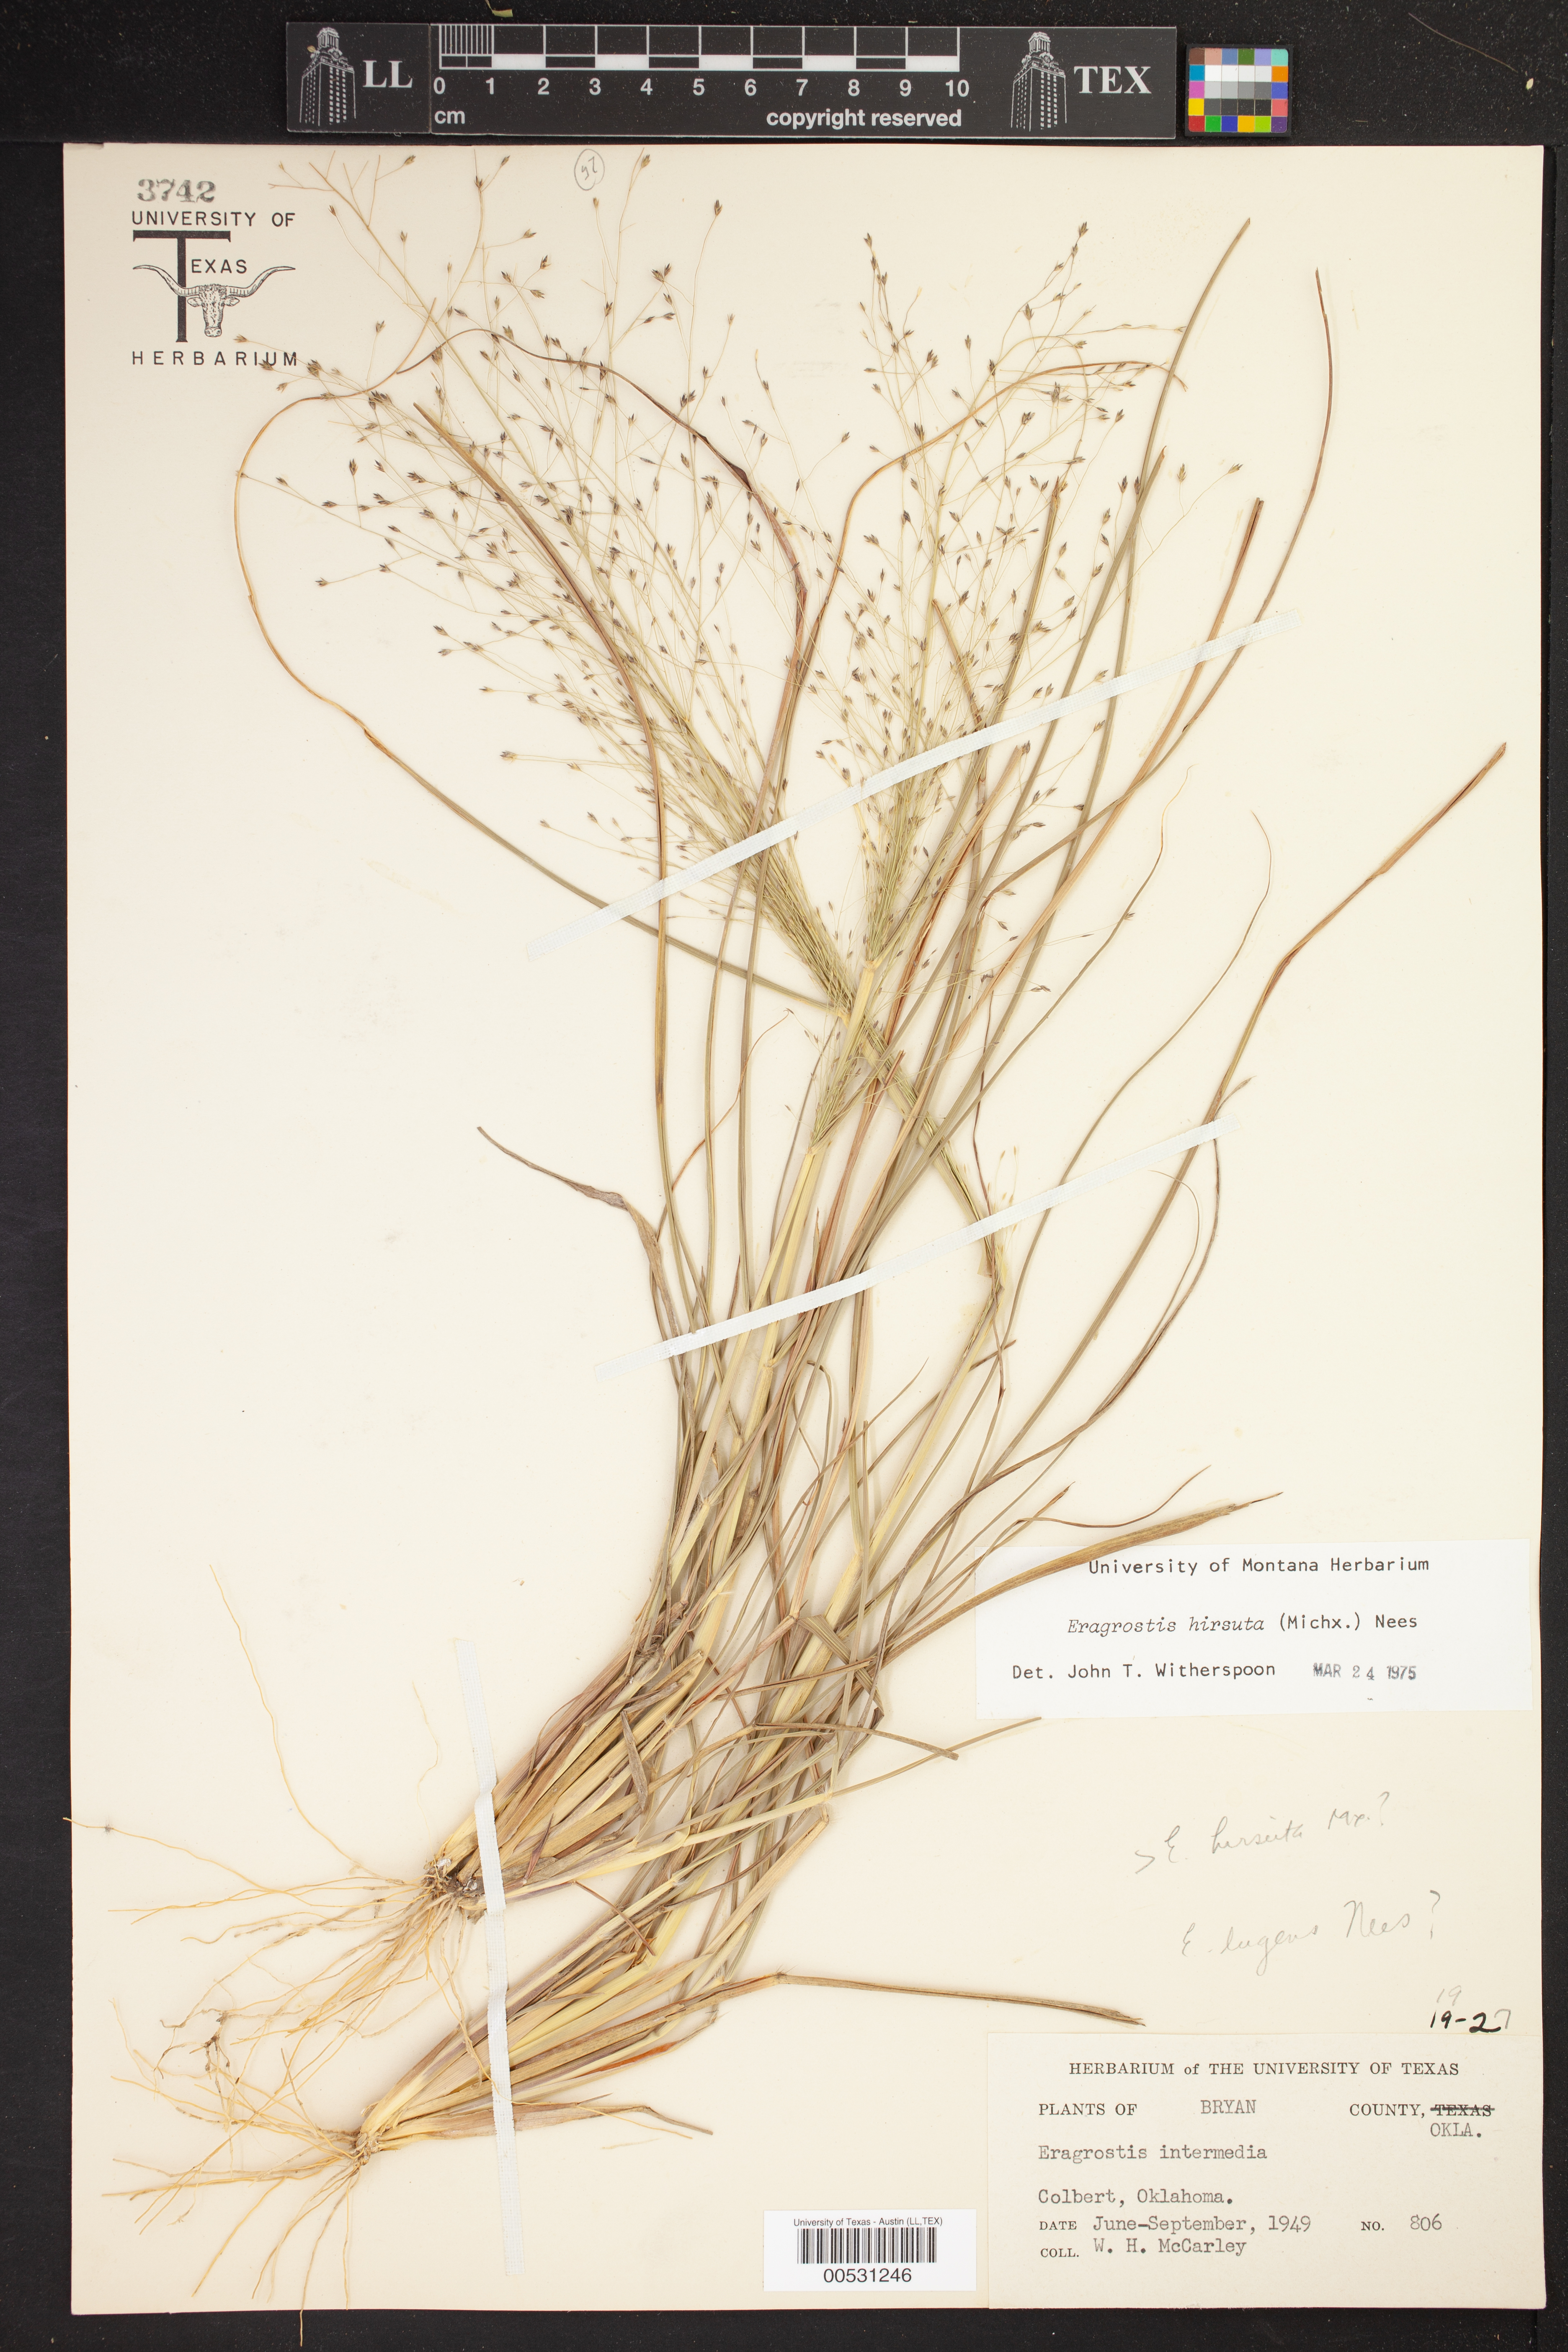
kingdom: Plantae
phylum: Tracheophyta
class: Liliopsida
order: Poales
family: Poaceae
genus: Eragrostis
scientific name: Eragrostis intermedia
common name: Plains love grass
